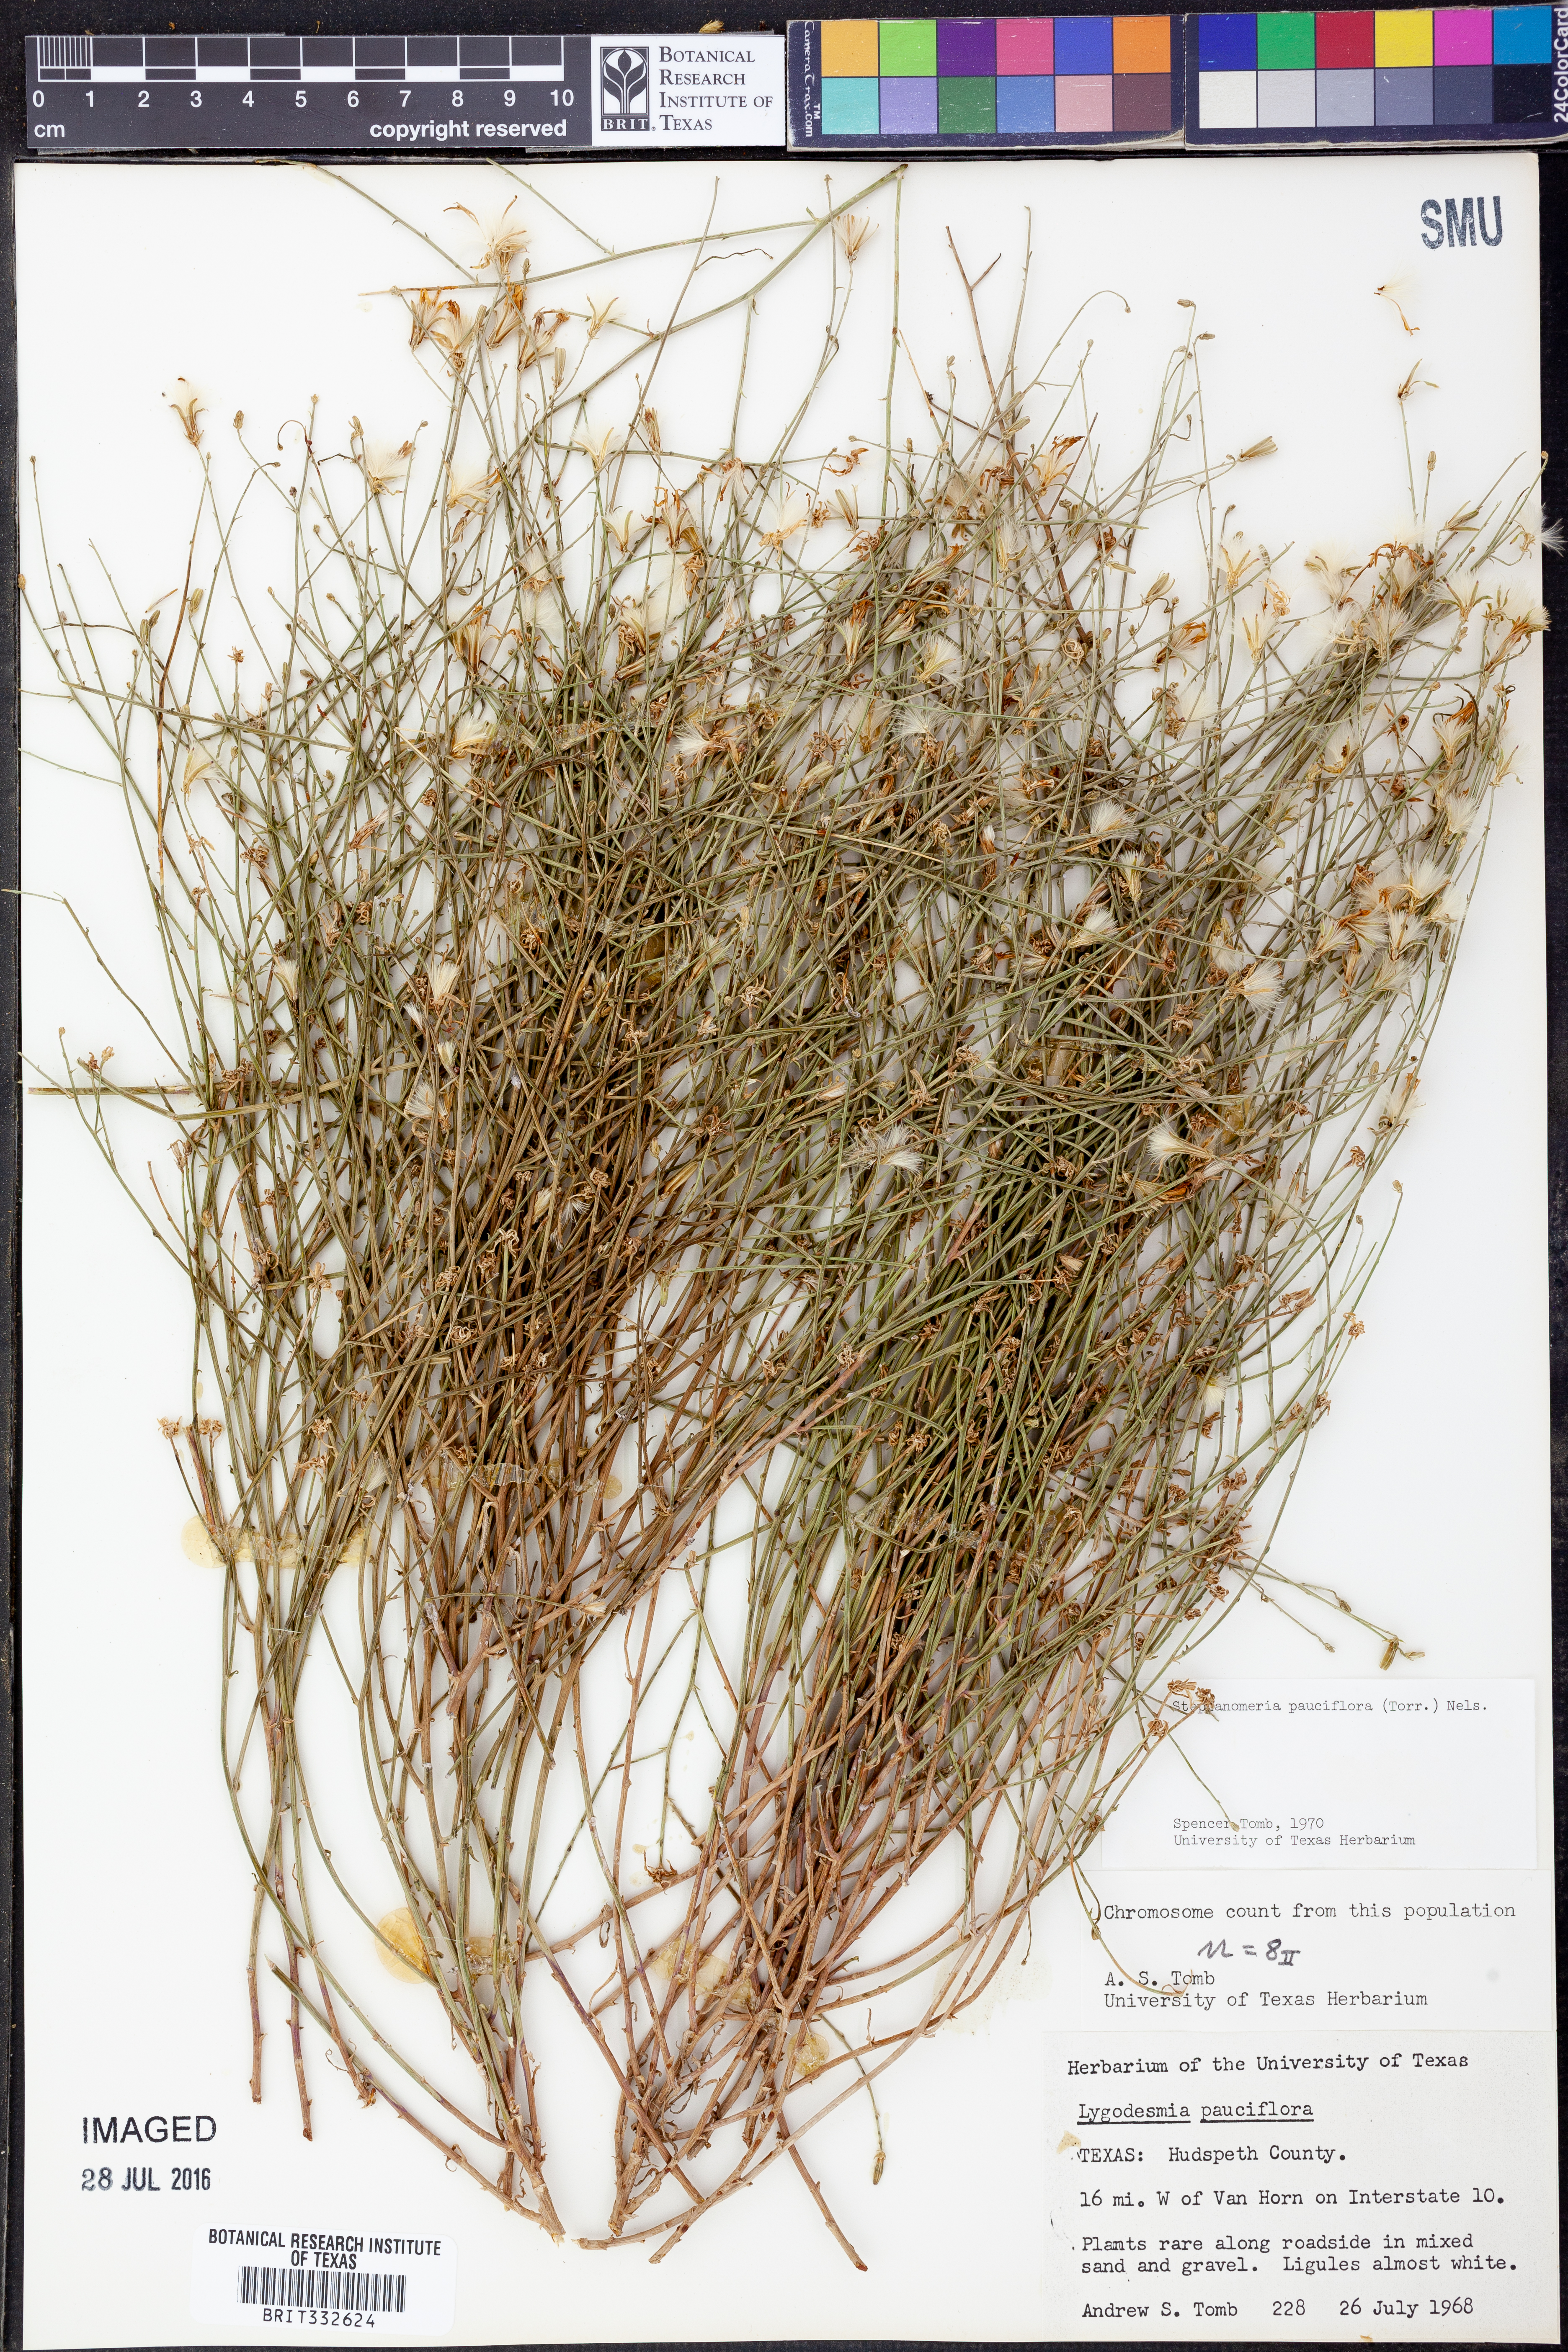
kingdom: Plantae
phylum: Tracheophyta
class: Magnoliopsida
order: Asterales
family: Asteraceae
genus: Stephanomeria
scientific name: Stephanomeria pauciflora
